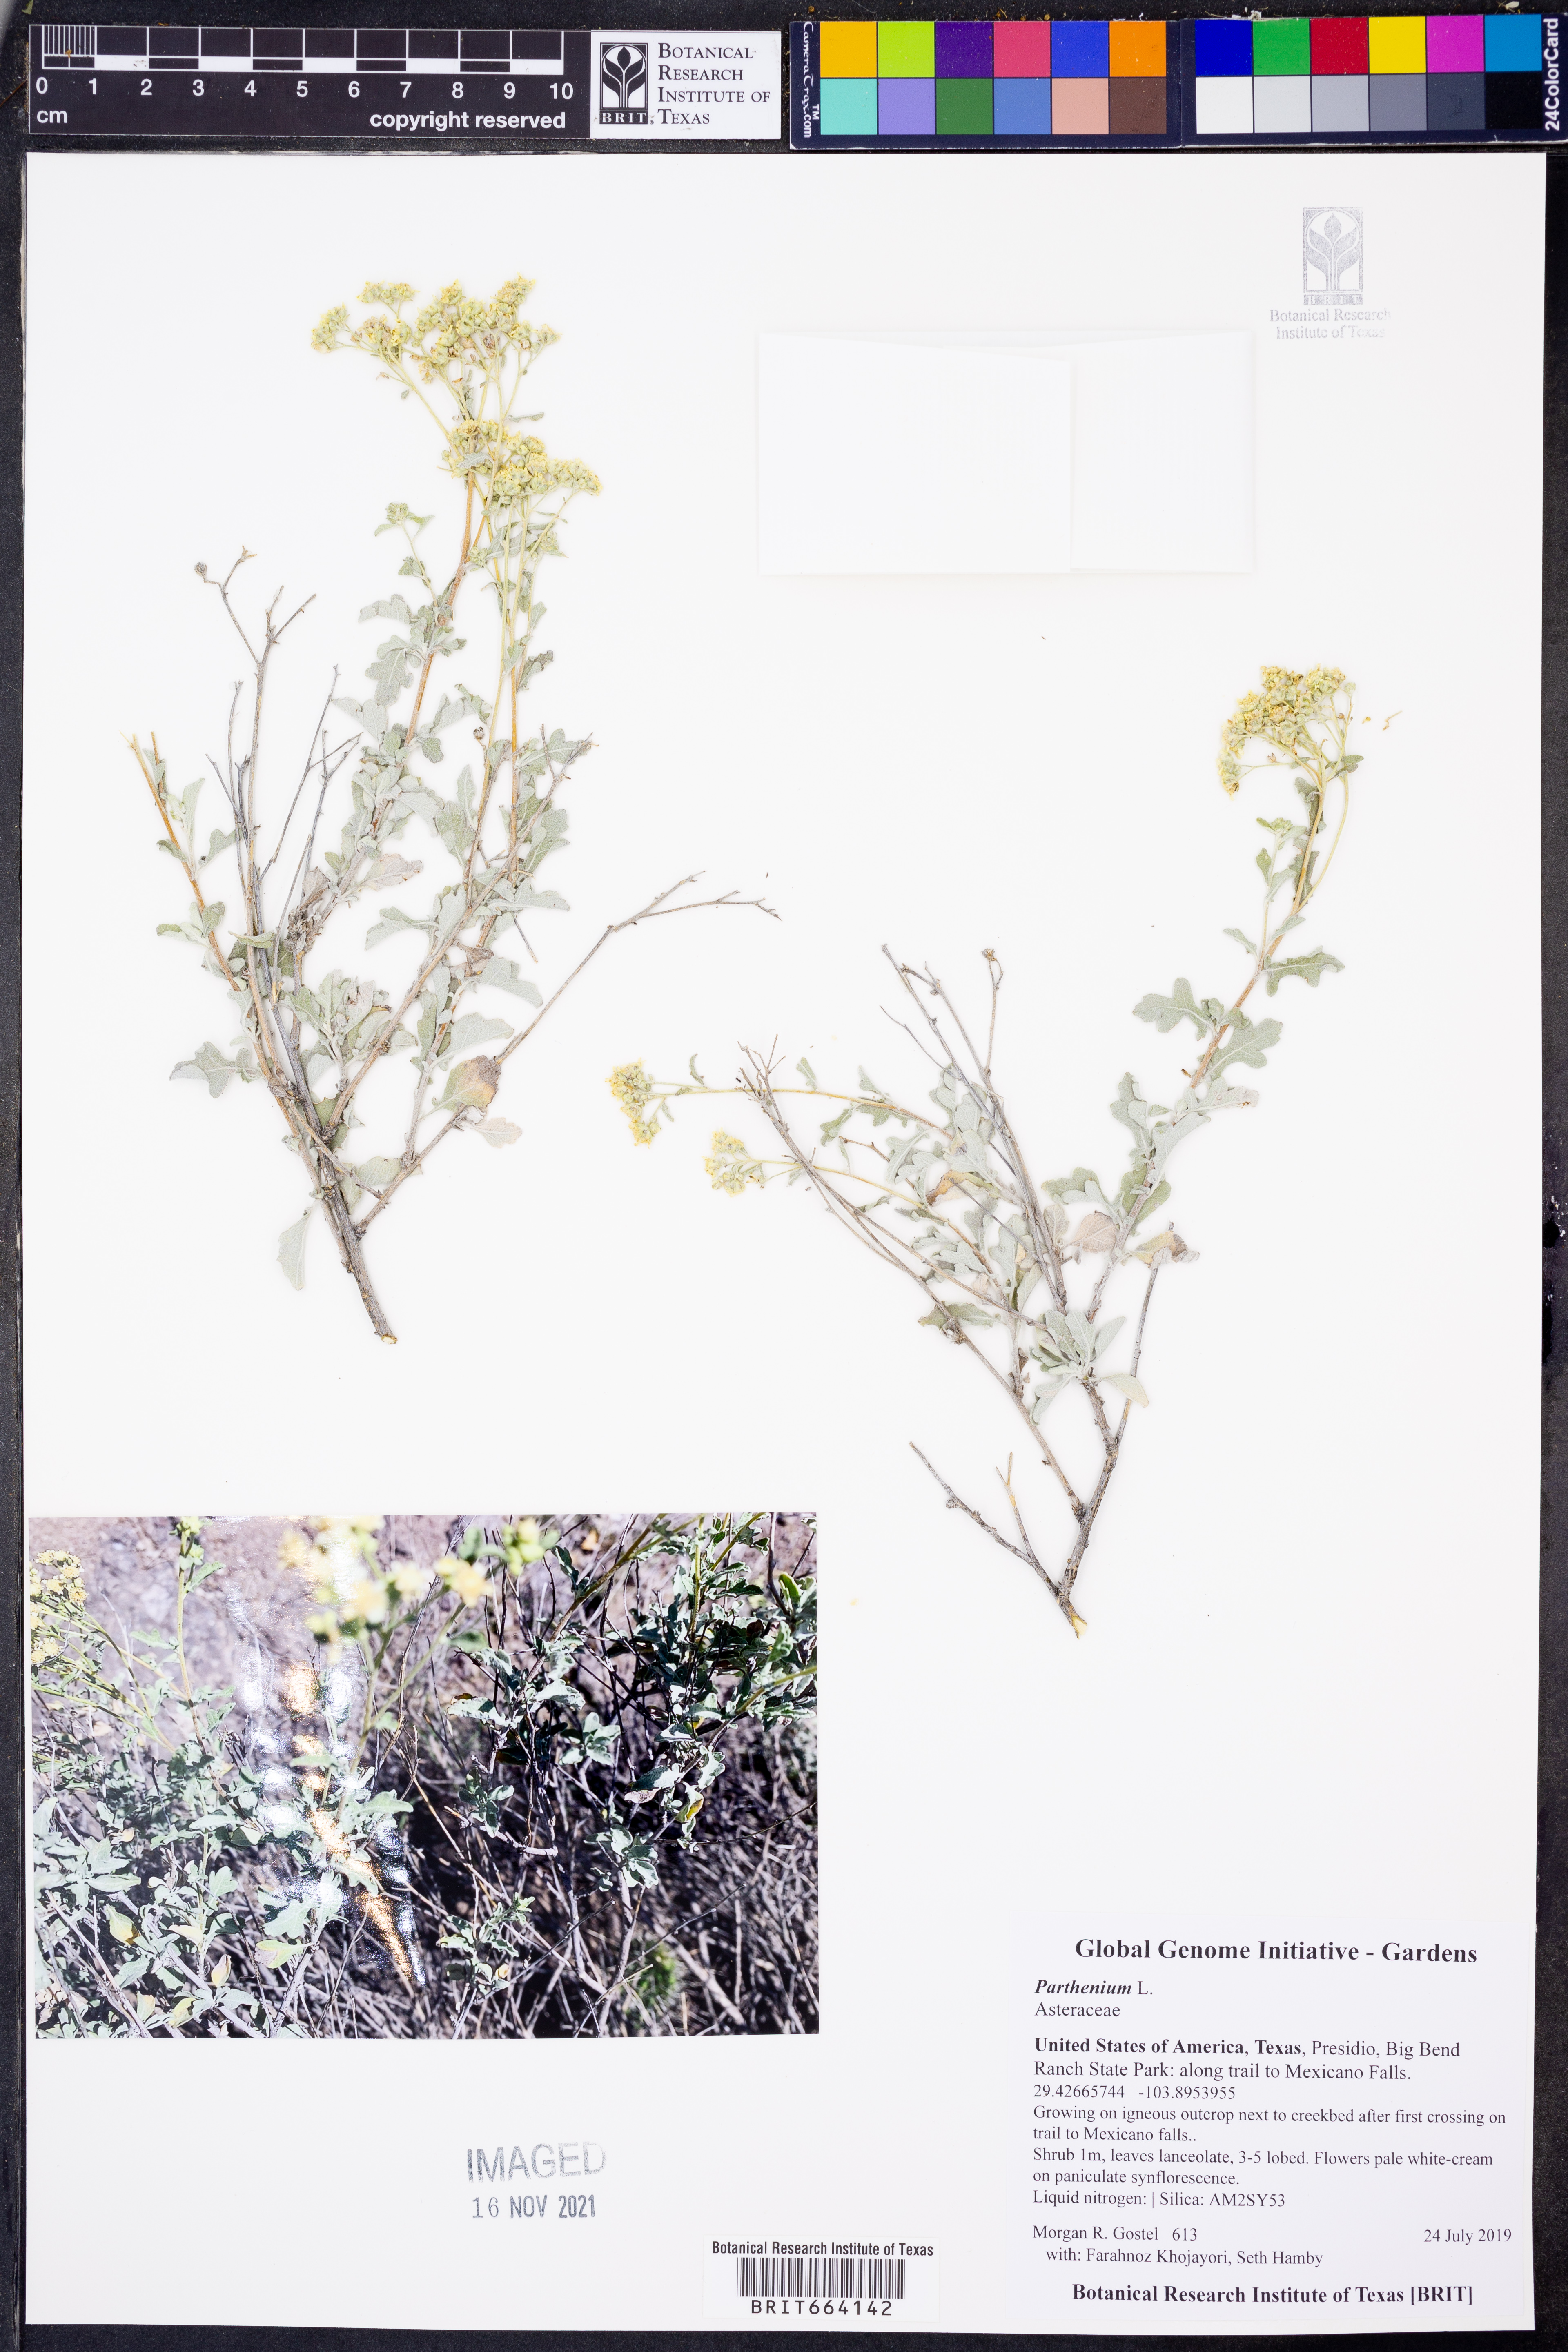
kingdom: Plantae
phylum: Tracheophyta
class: Magnoliopsida
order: Asterales
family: Asteraceae
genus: Parthenium
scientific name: Parthenium
